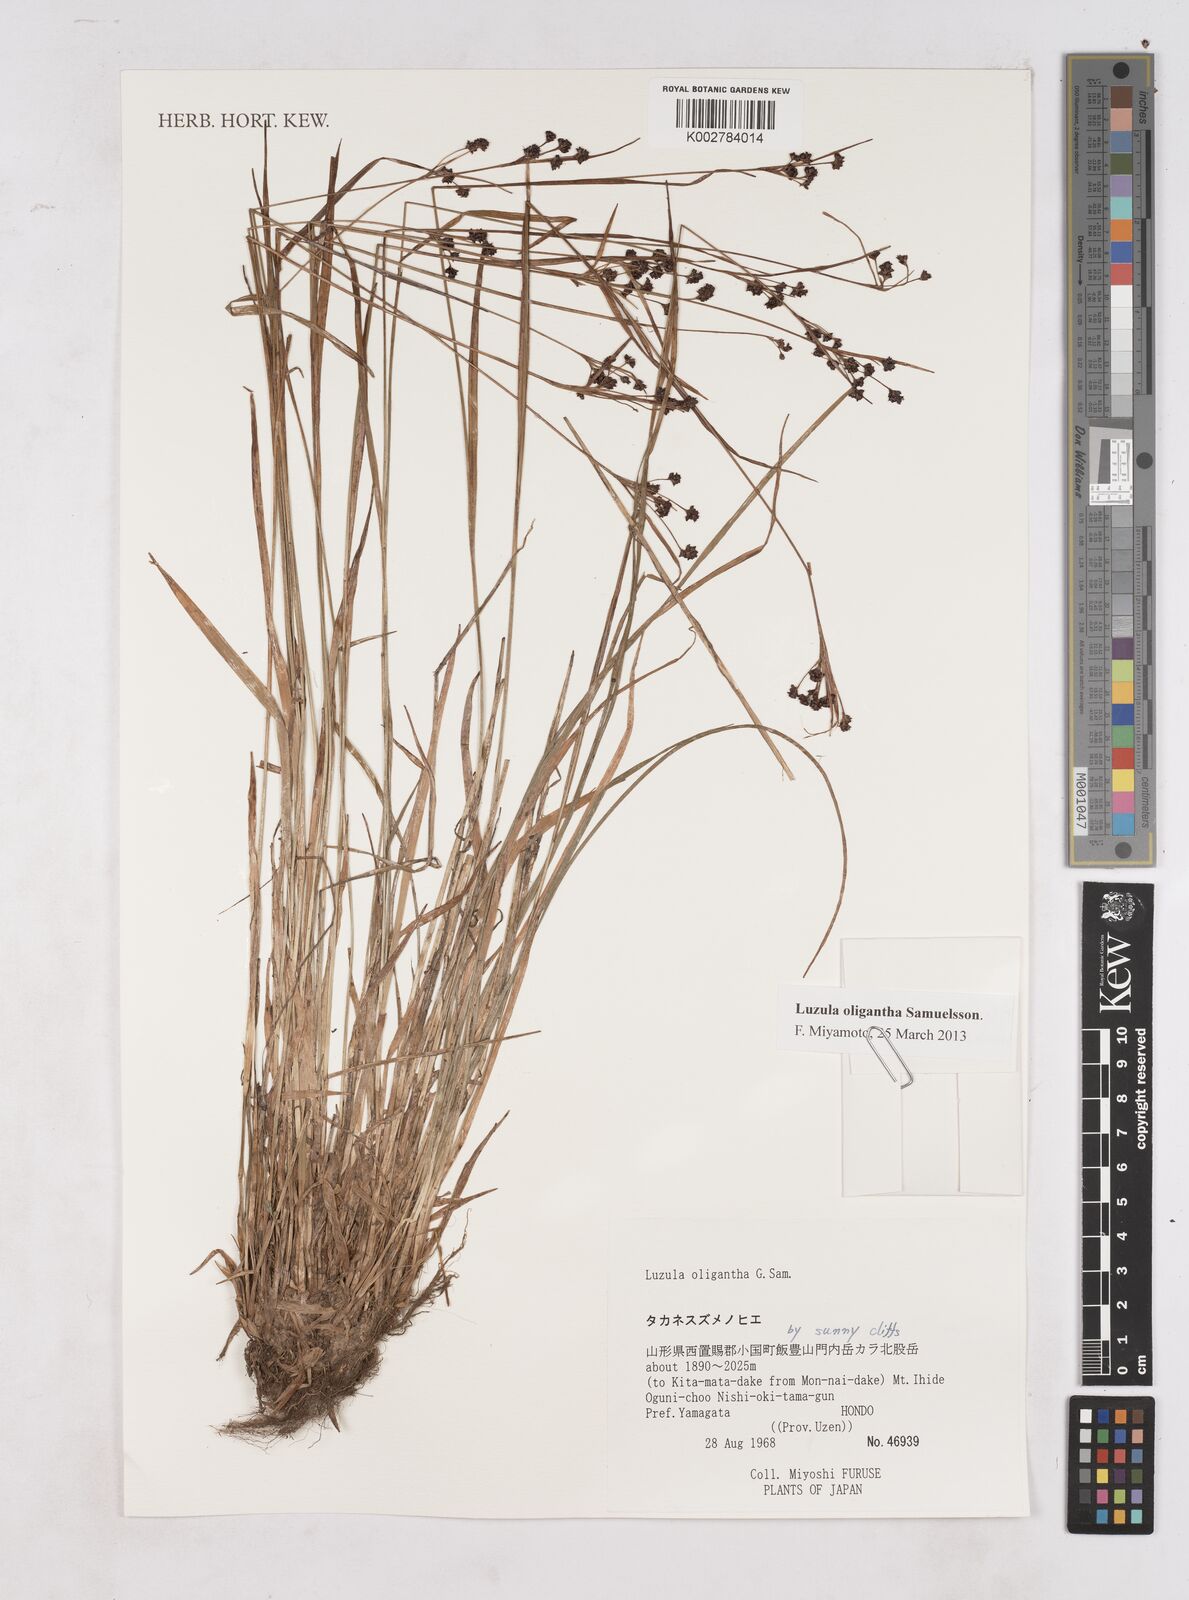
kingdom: Plantae
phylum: Tracheophyta
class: Liliopsida
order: Poales
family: Juncaceae
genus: Luzula
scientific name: Luzula oligantha
